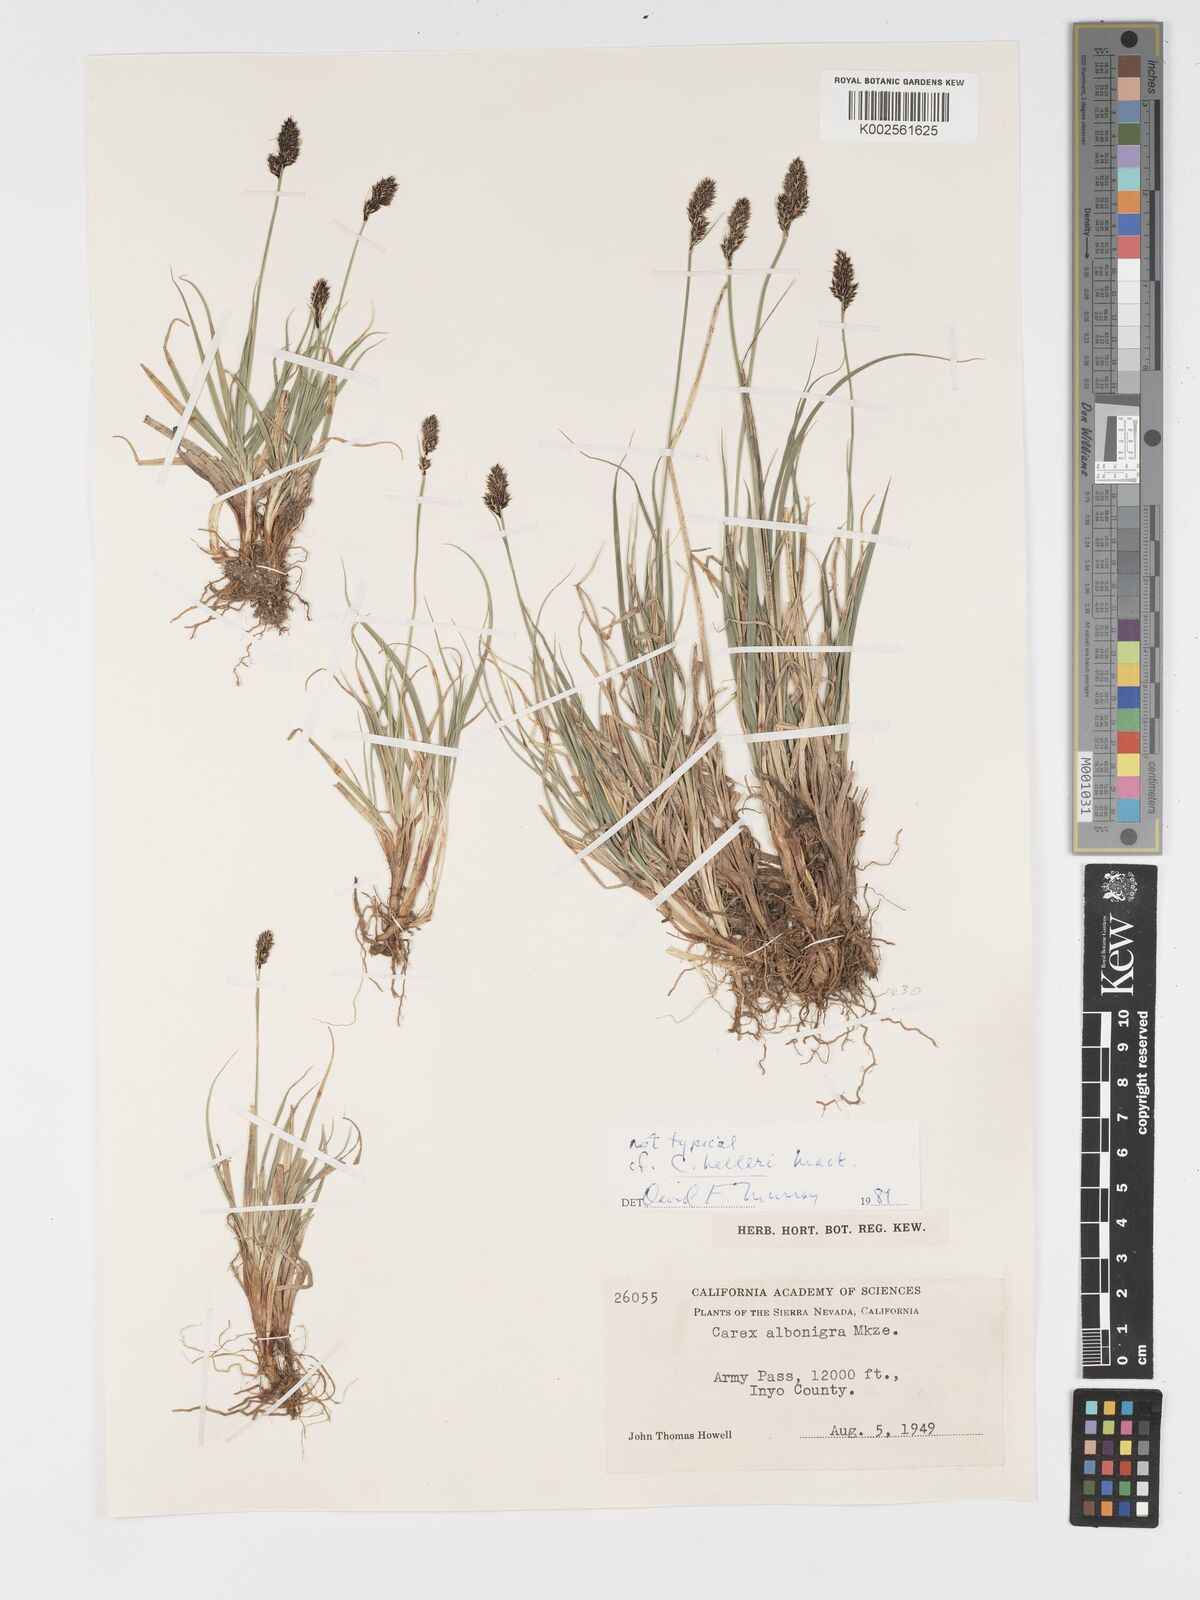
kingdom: Plantae
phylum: Tracheophyta
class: Liliopsida
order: Poales
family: Cyperaceae
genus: Carex
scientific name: Carex helleri
